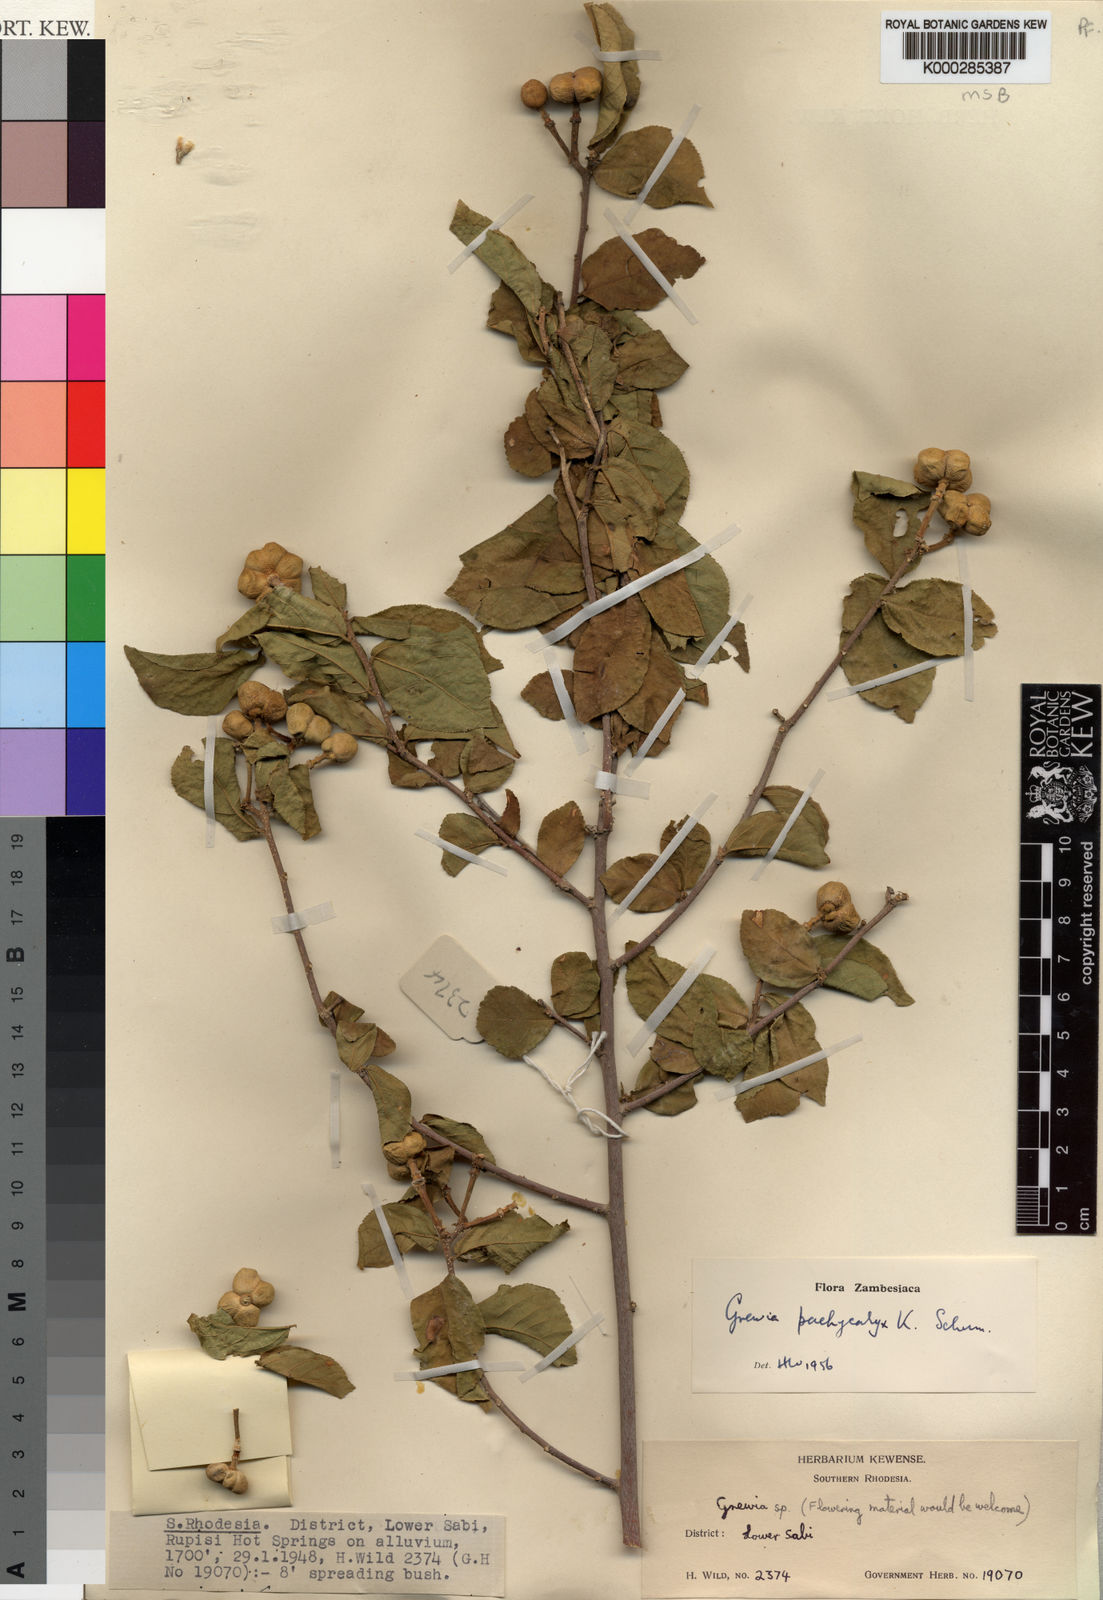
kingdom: Plantae
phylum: Tracheophyta
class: Magnoliopsida
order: Malvales
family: Malvaceae
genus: Grewia
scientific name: Grewia pachycalyx
